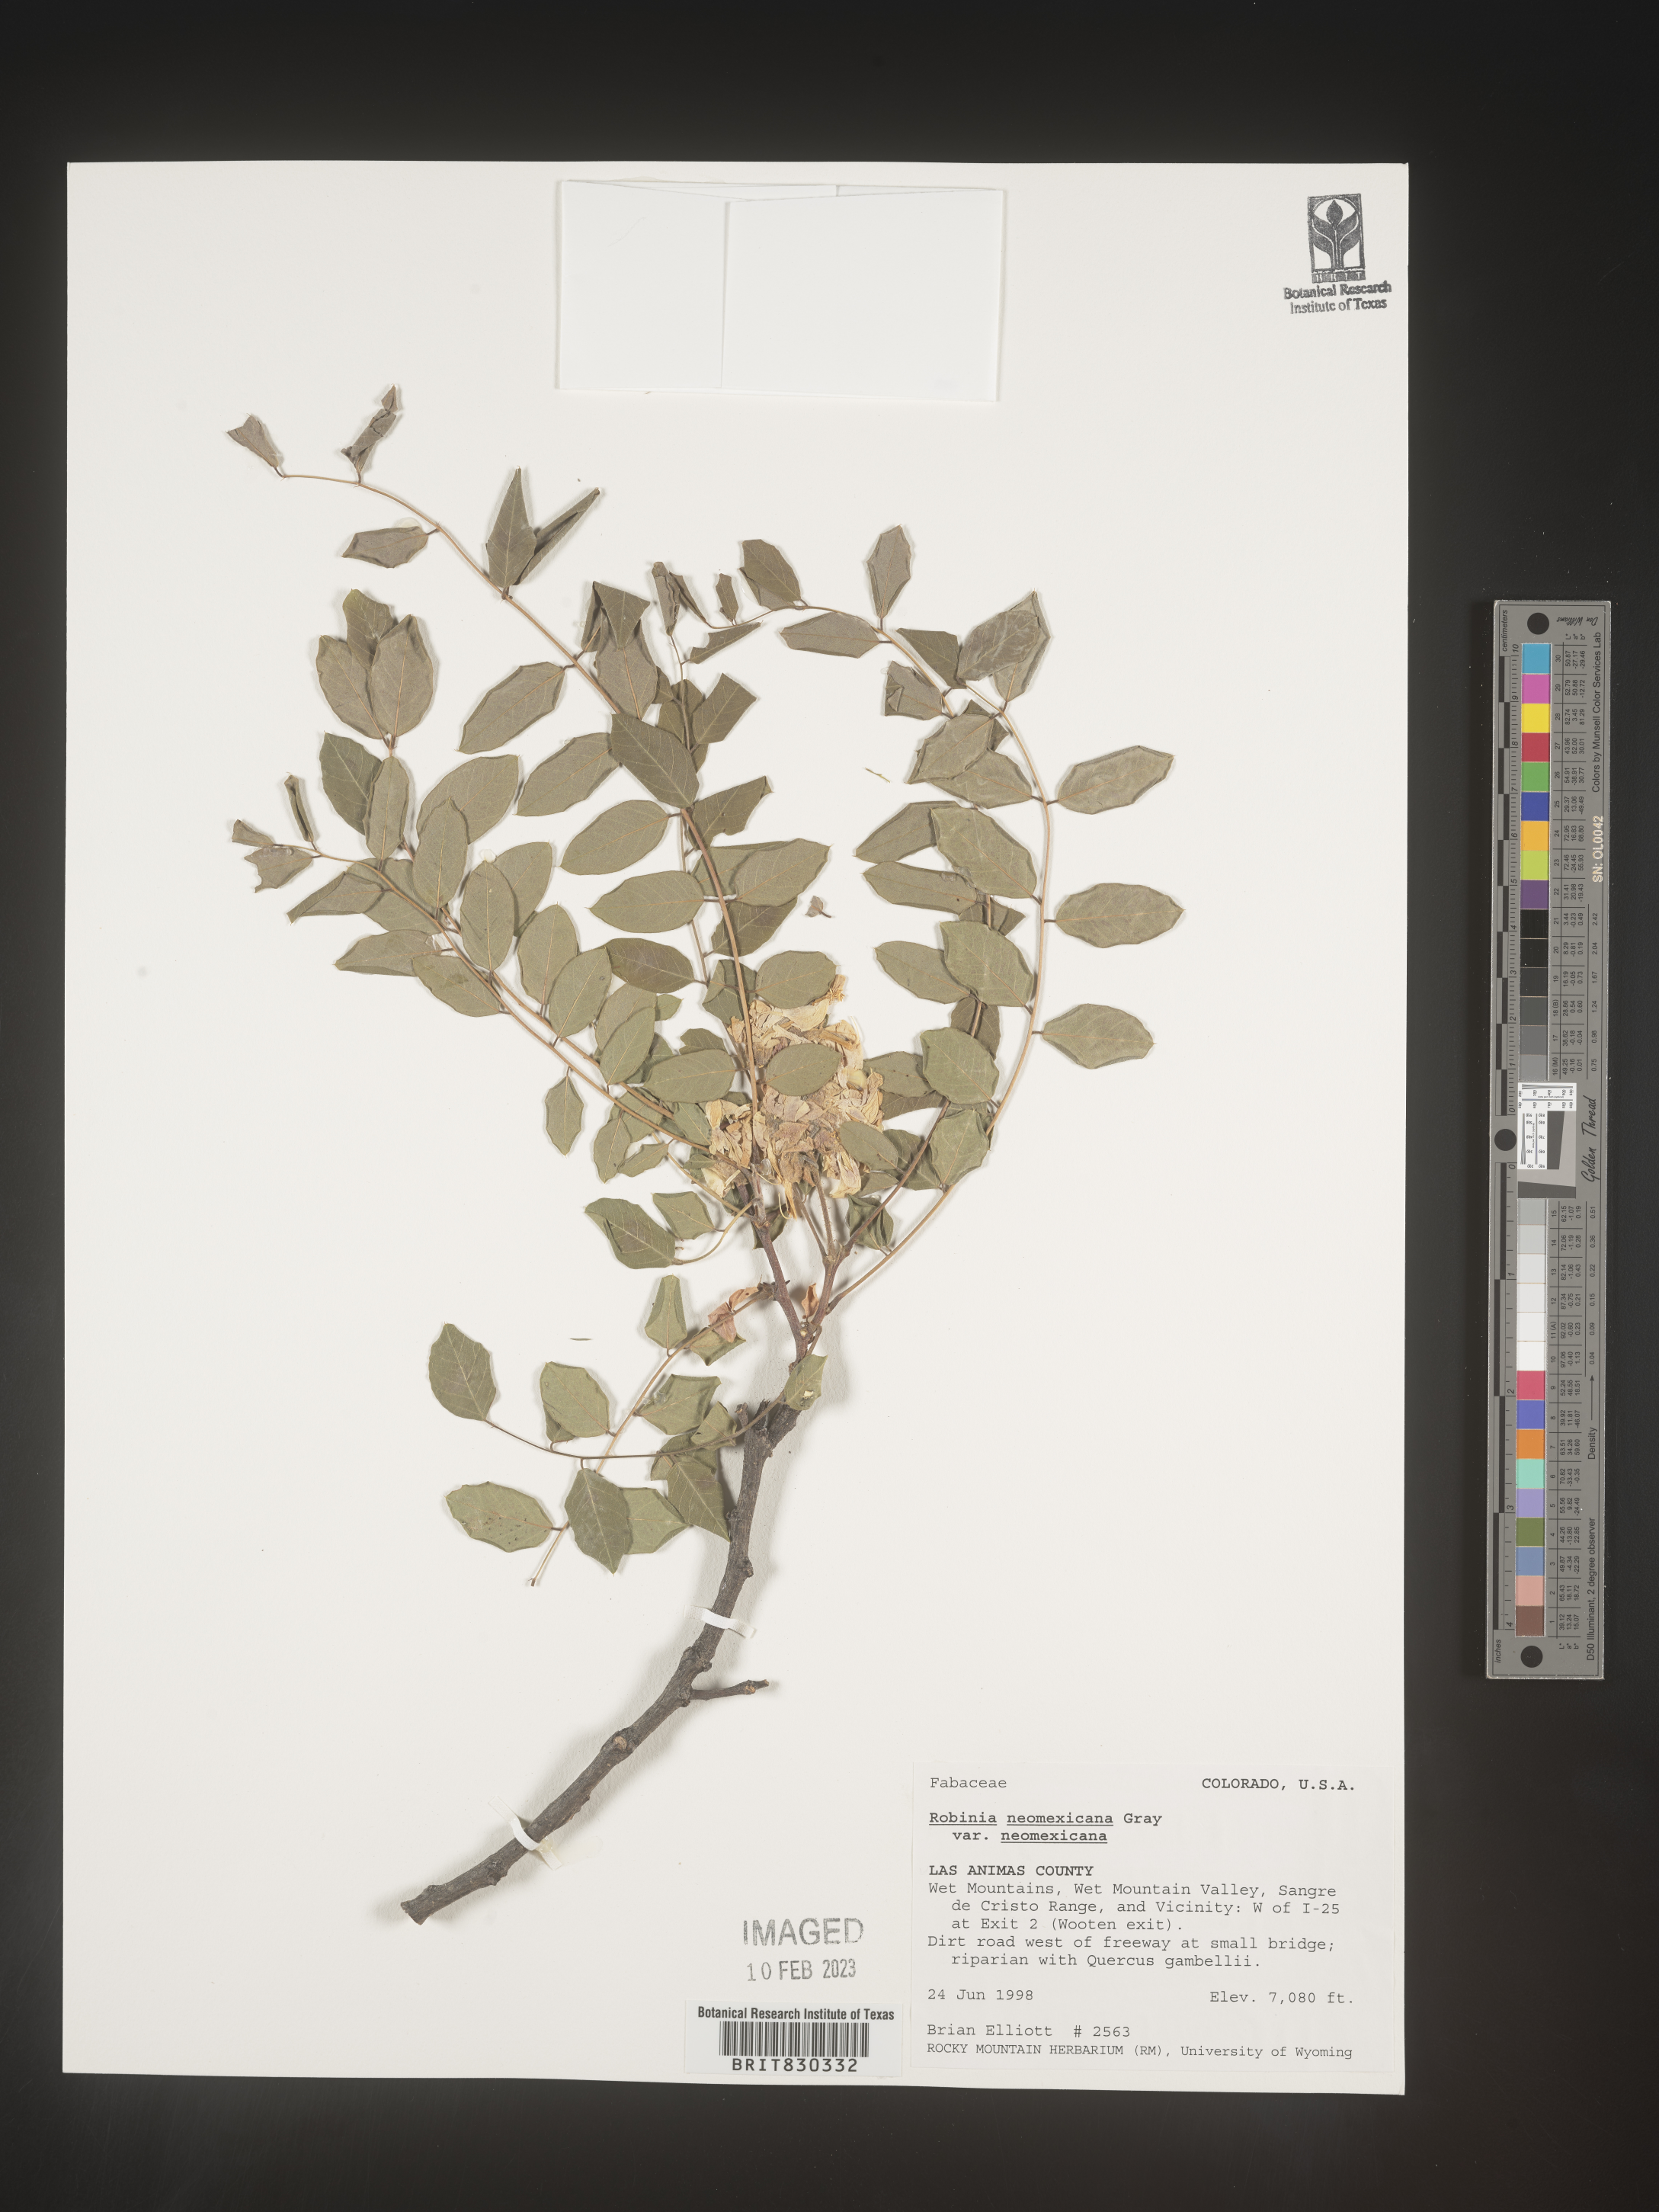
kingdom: Plantae
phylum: Tracheophyta
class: Magnoliopsida
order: Fabales
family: Fabaceae
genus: Robinia
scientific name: Robinia neomexicana
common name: New mexico locust
